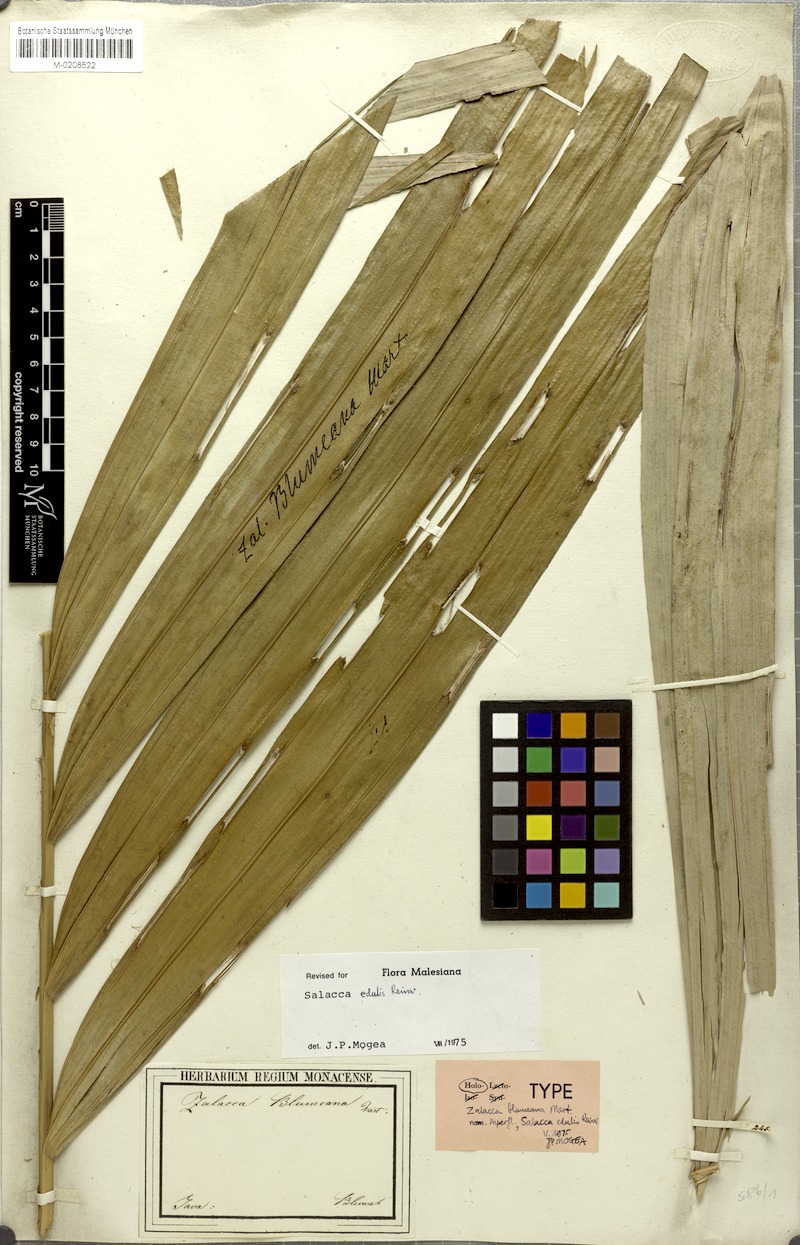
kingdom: Plantae
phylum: Tracheophyta
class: Liliopsida
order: Arecales
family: Arecaceae
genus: Salacca
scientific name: Salacca zalacca
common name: Salak
